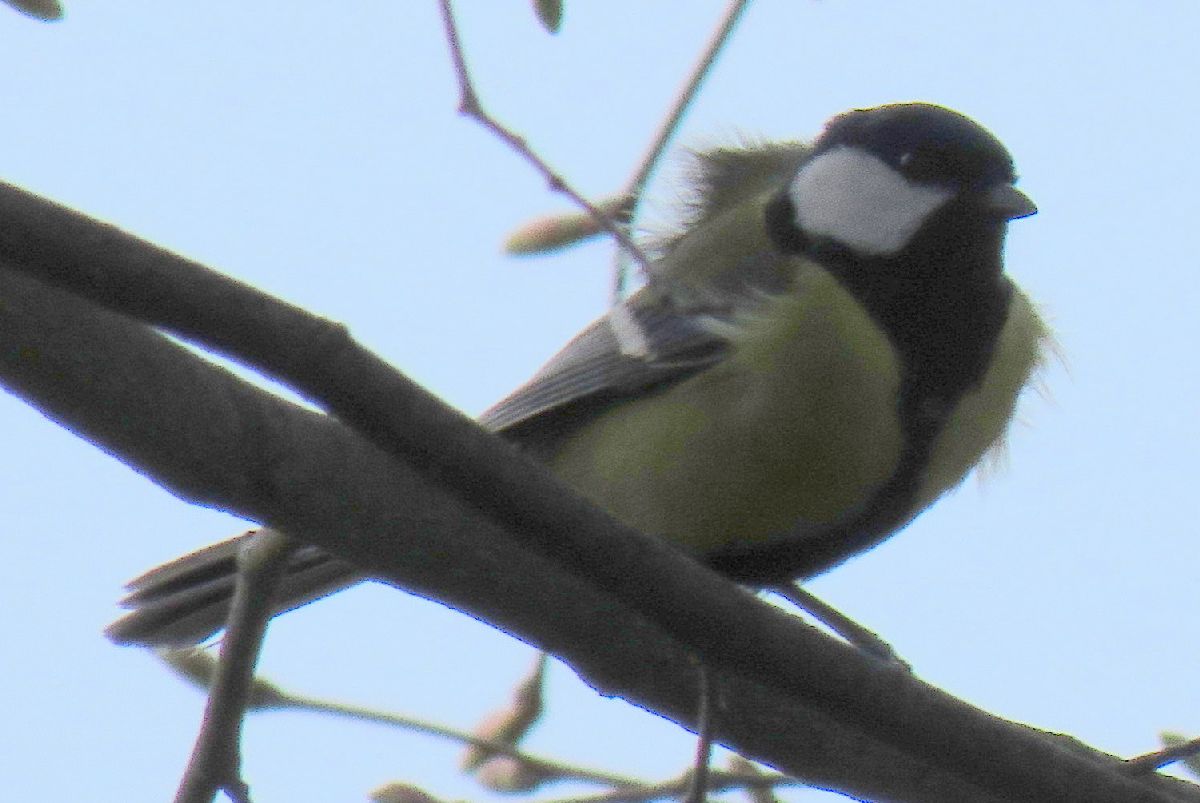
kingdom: Animalia
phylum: Chordata
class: Aves
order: Passeriformes
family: Paridae
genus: Parus
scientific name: Parus major
